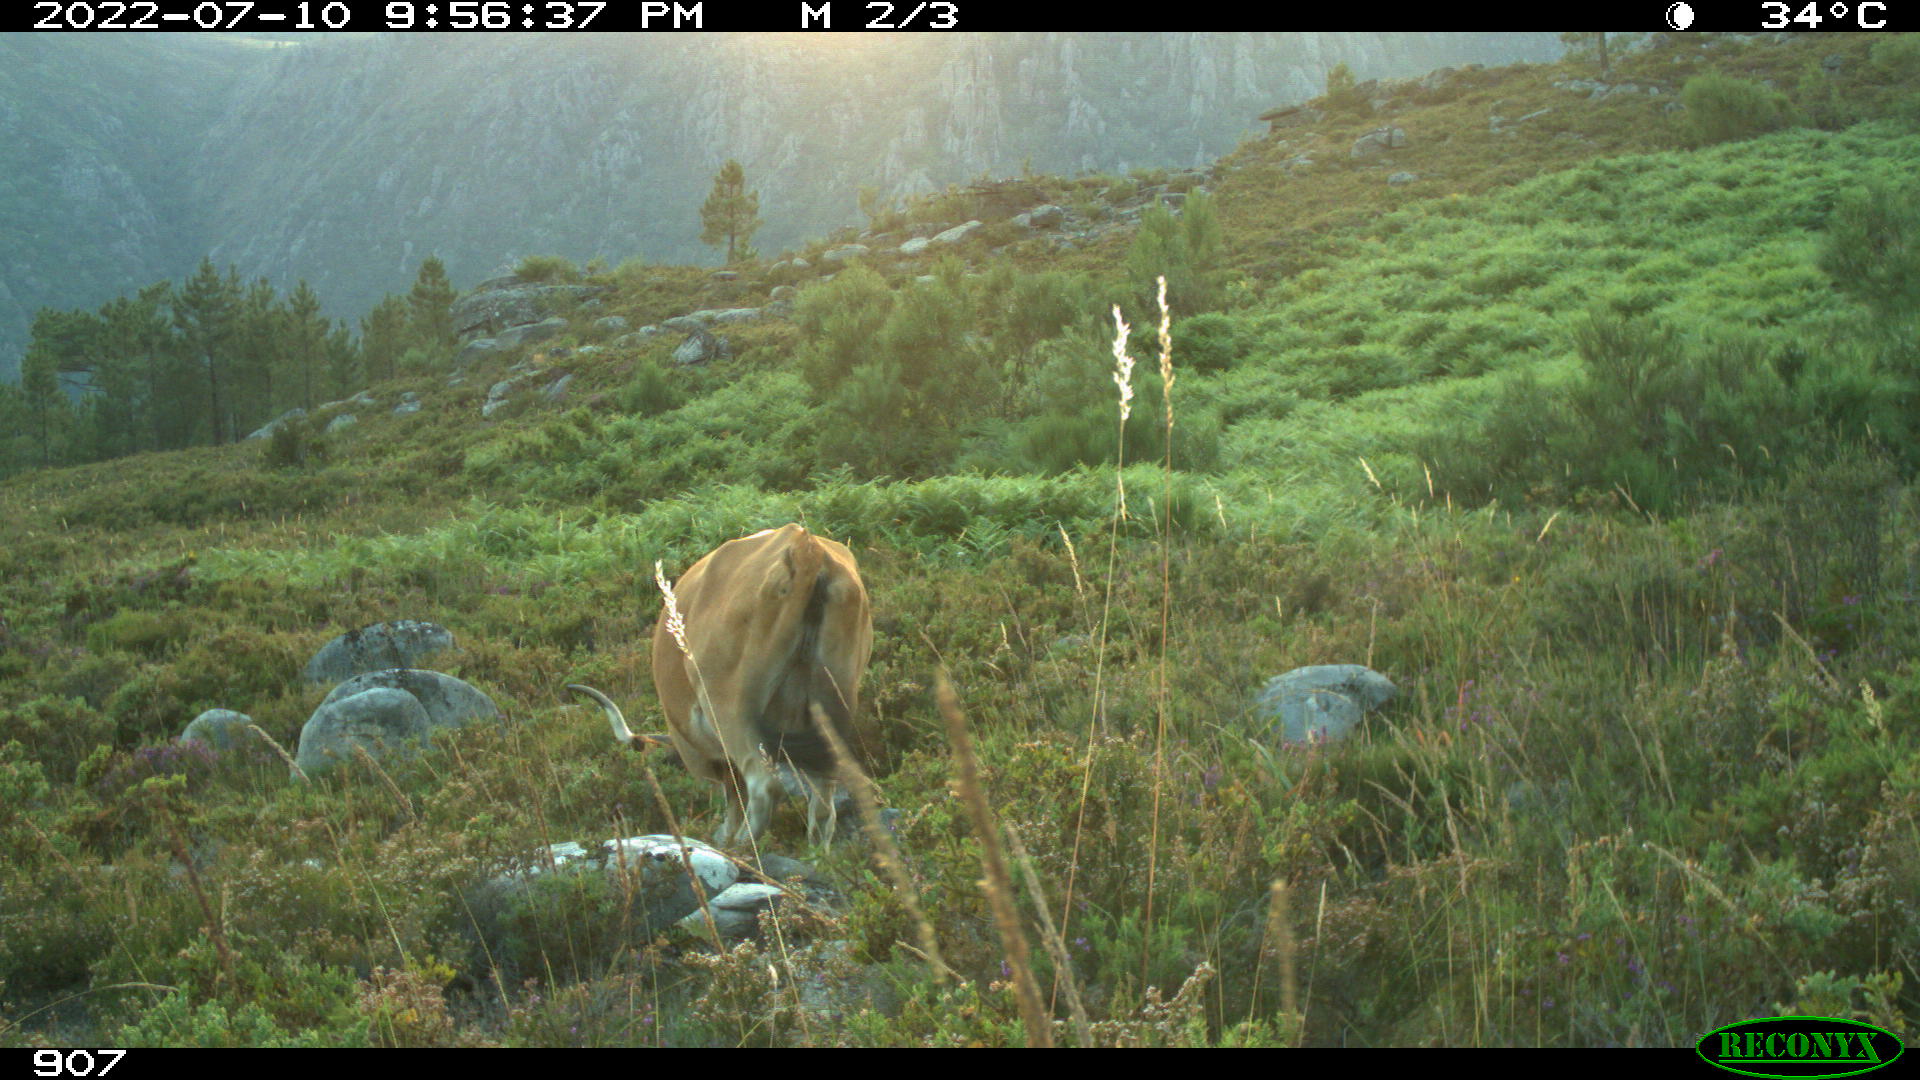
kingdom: Animalia
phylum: Chordata
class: Mammalia
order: Artiodactyla
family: Bovidae
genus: Bos
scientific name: Bos taurus
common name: Domesticated cattle
